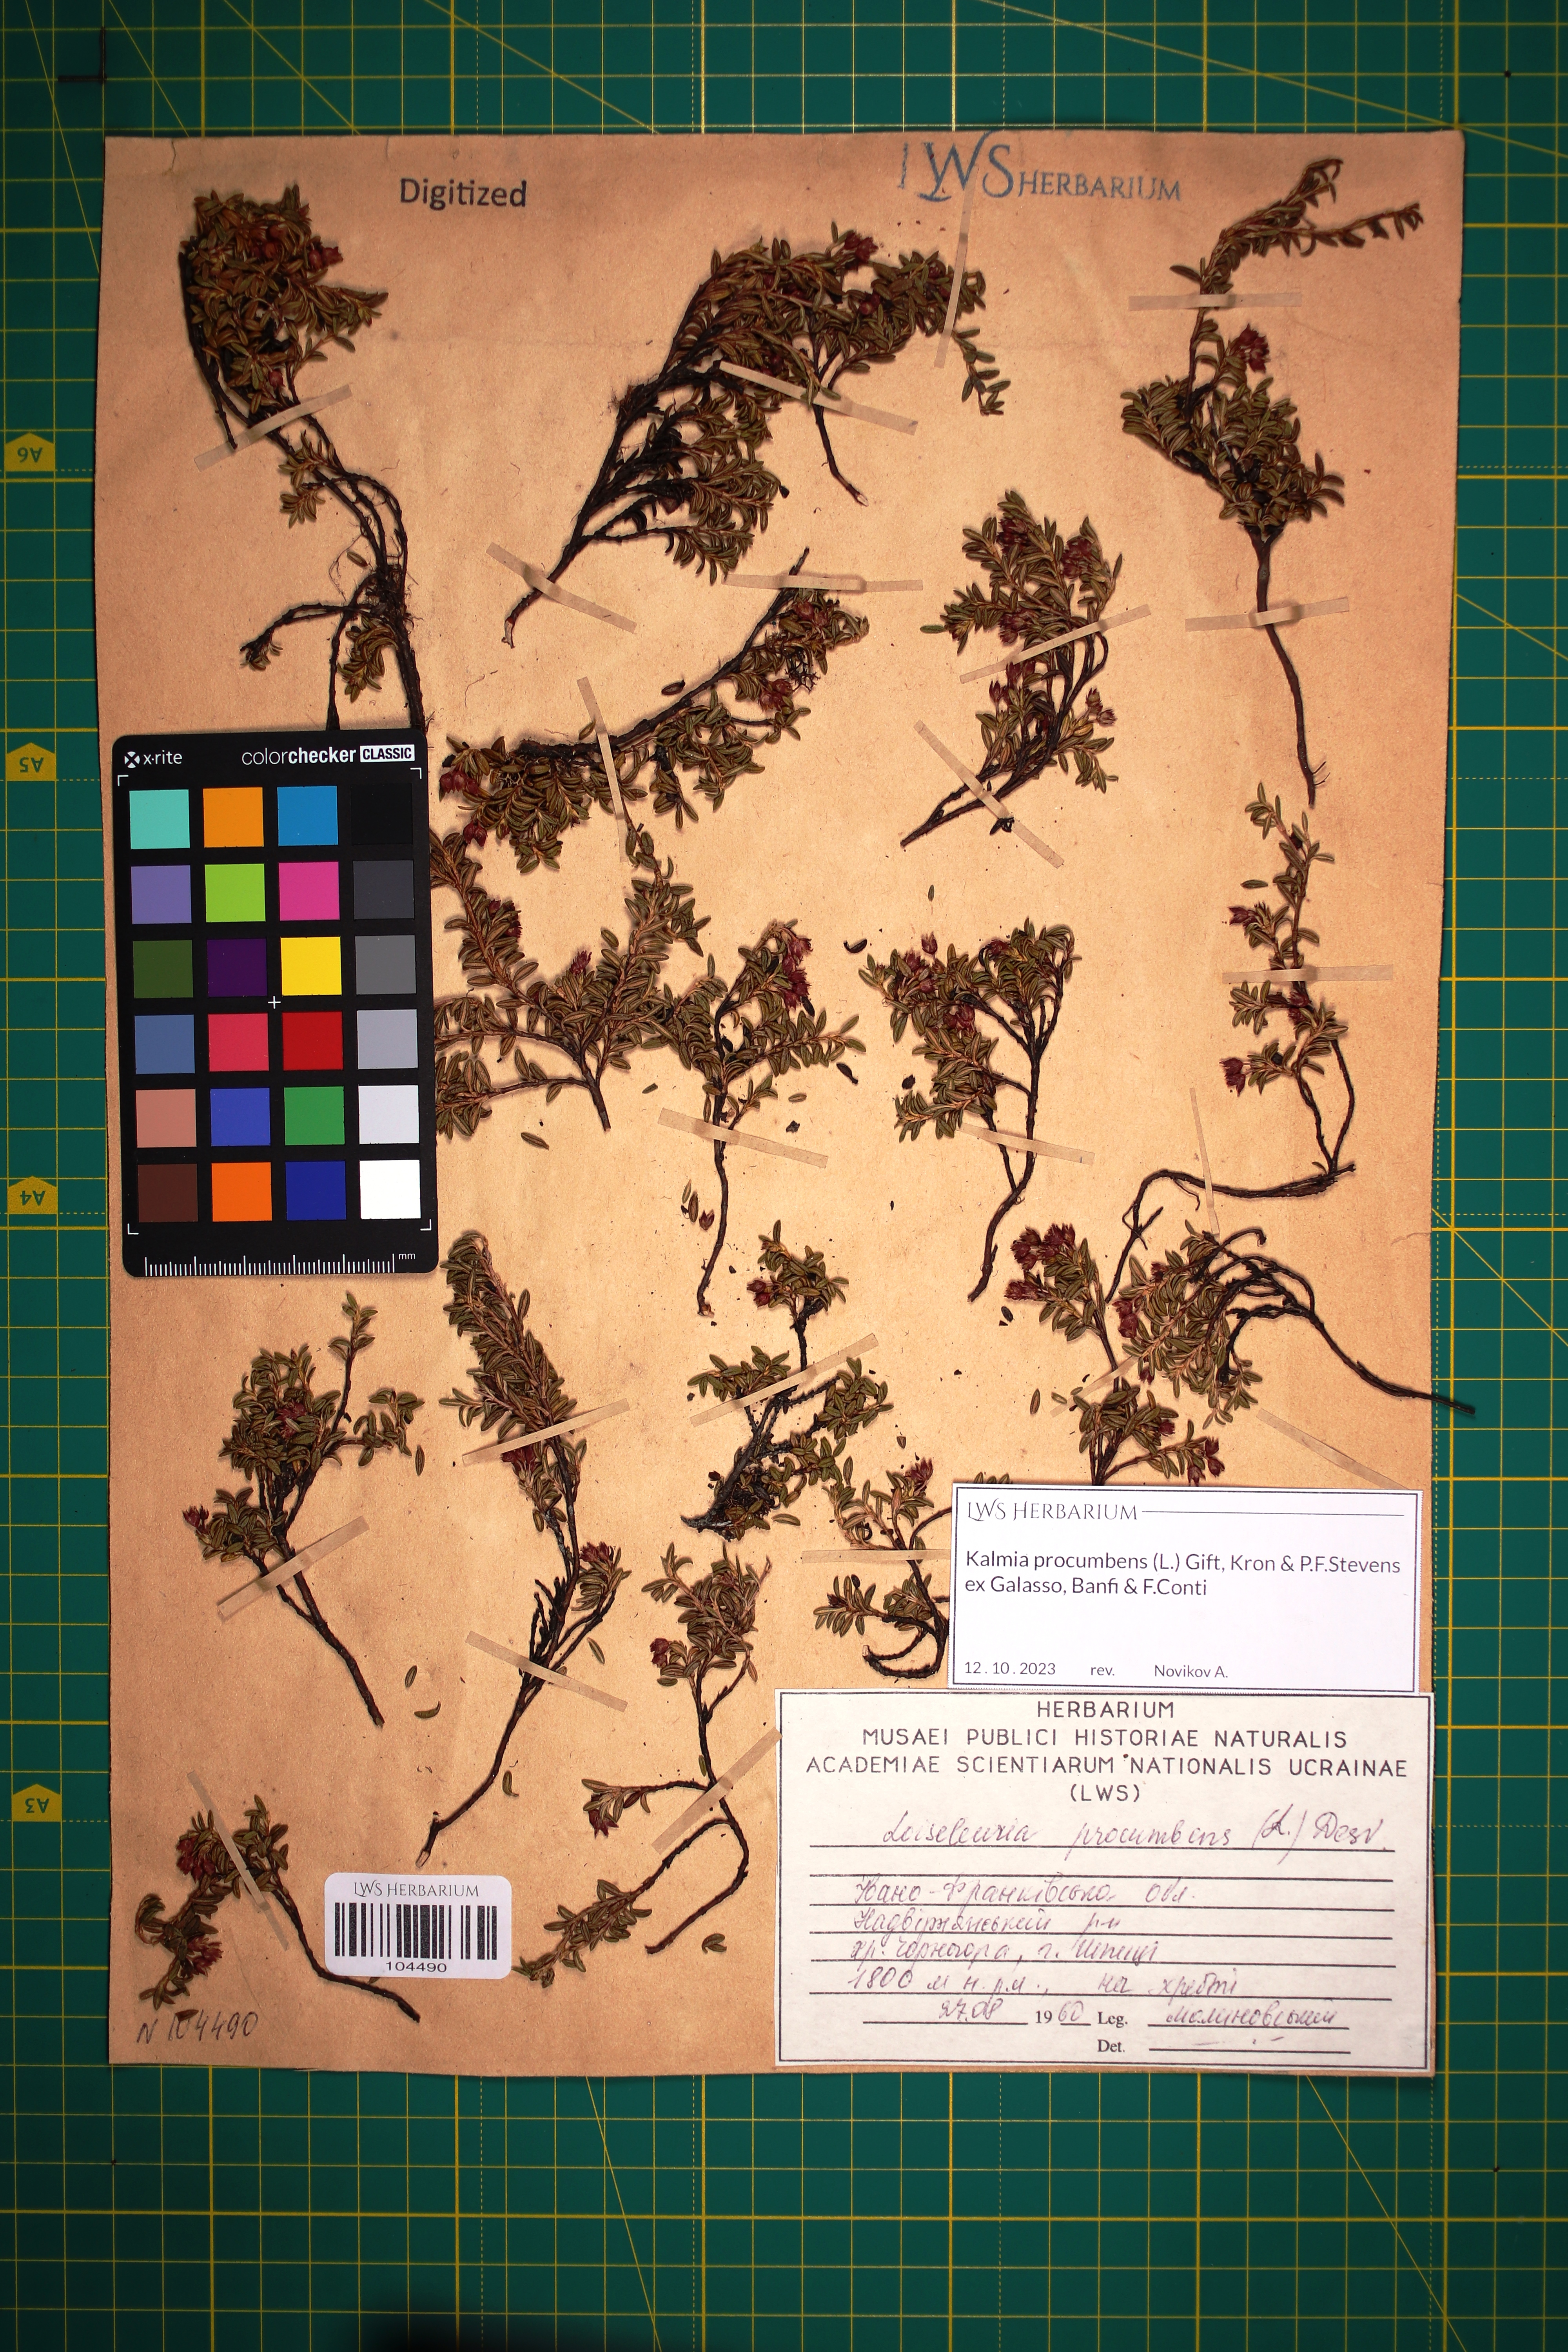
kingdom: Plantae
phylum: Tracheophyta
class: Magnoliopsida
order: Ericales
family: Ericaceae
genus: Kalmia
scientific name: Kalmia procumbens
